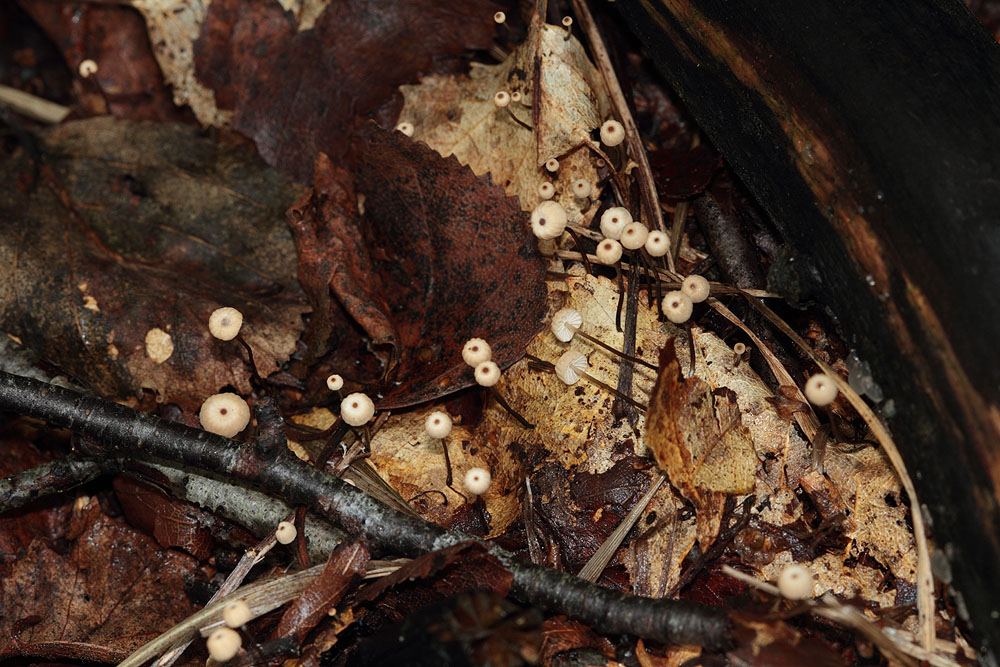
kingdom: Fungi
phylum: Basidiomycota
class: Agaricomycetes
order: Agaricales
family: Marasmiaceae
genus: Marasmius
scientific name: Marasmius bulliardii
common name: furet bruskhat
